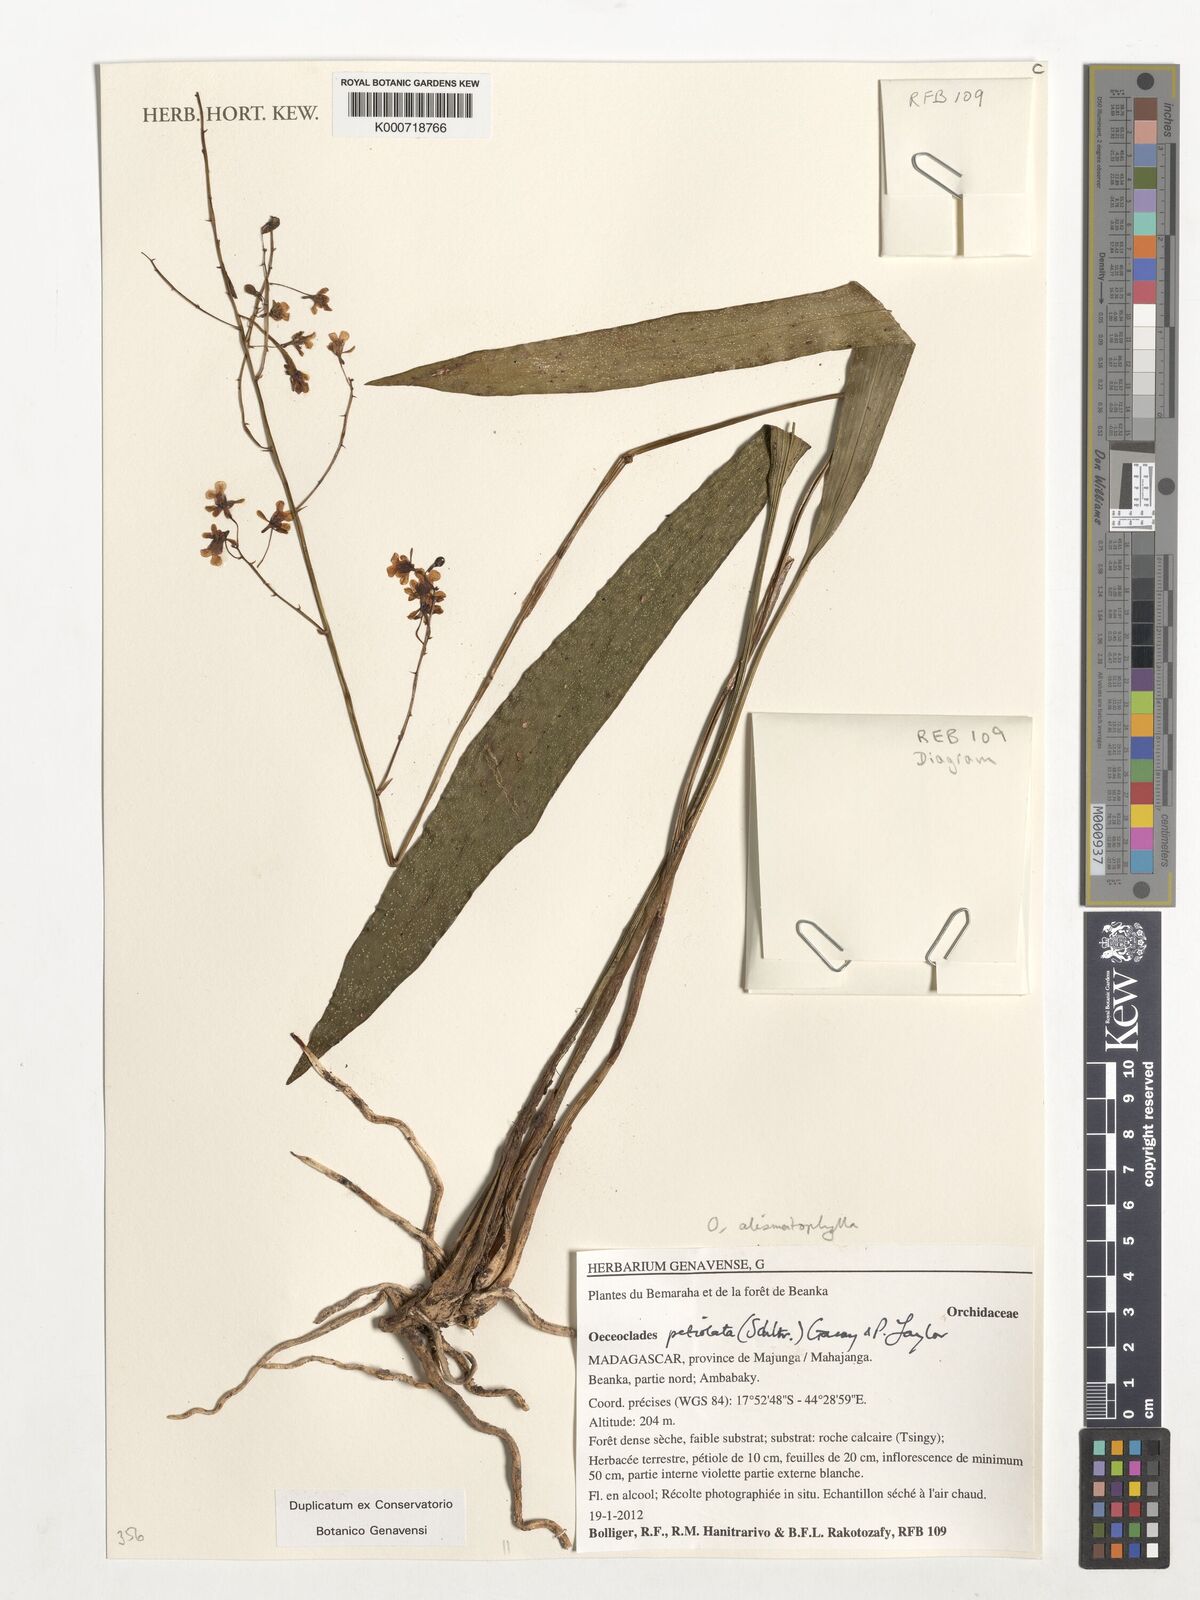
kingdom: Plantae
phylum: Tracheophyta
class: Liliopsida
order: Asparagales
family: Orchidaceae
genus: Eulophia
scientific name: Eulophia petiolata
